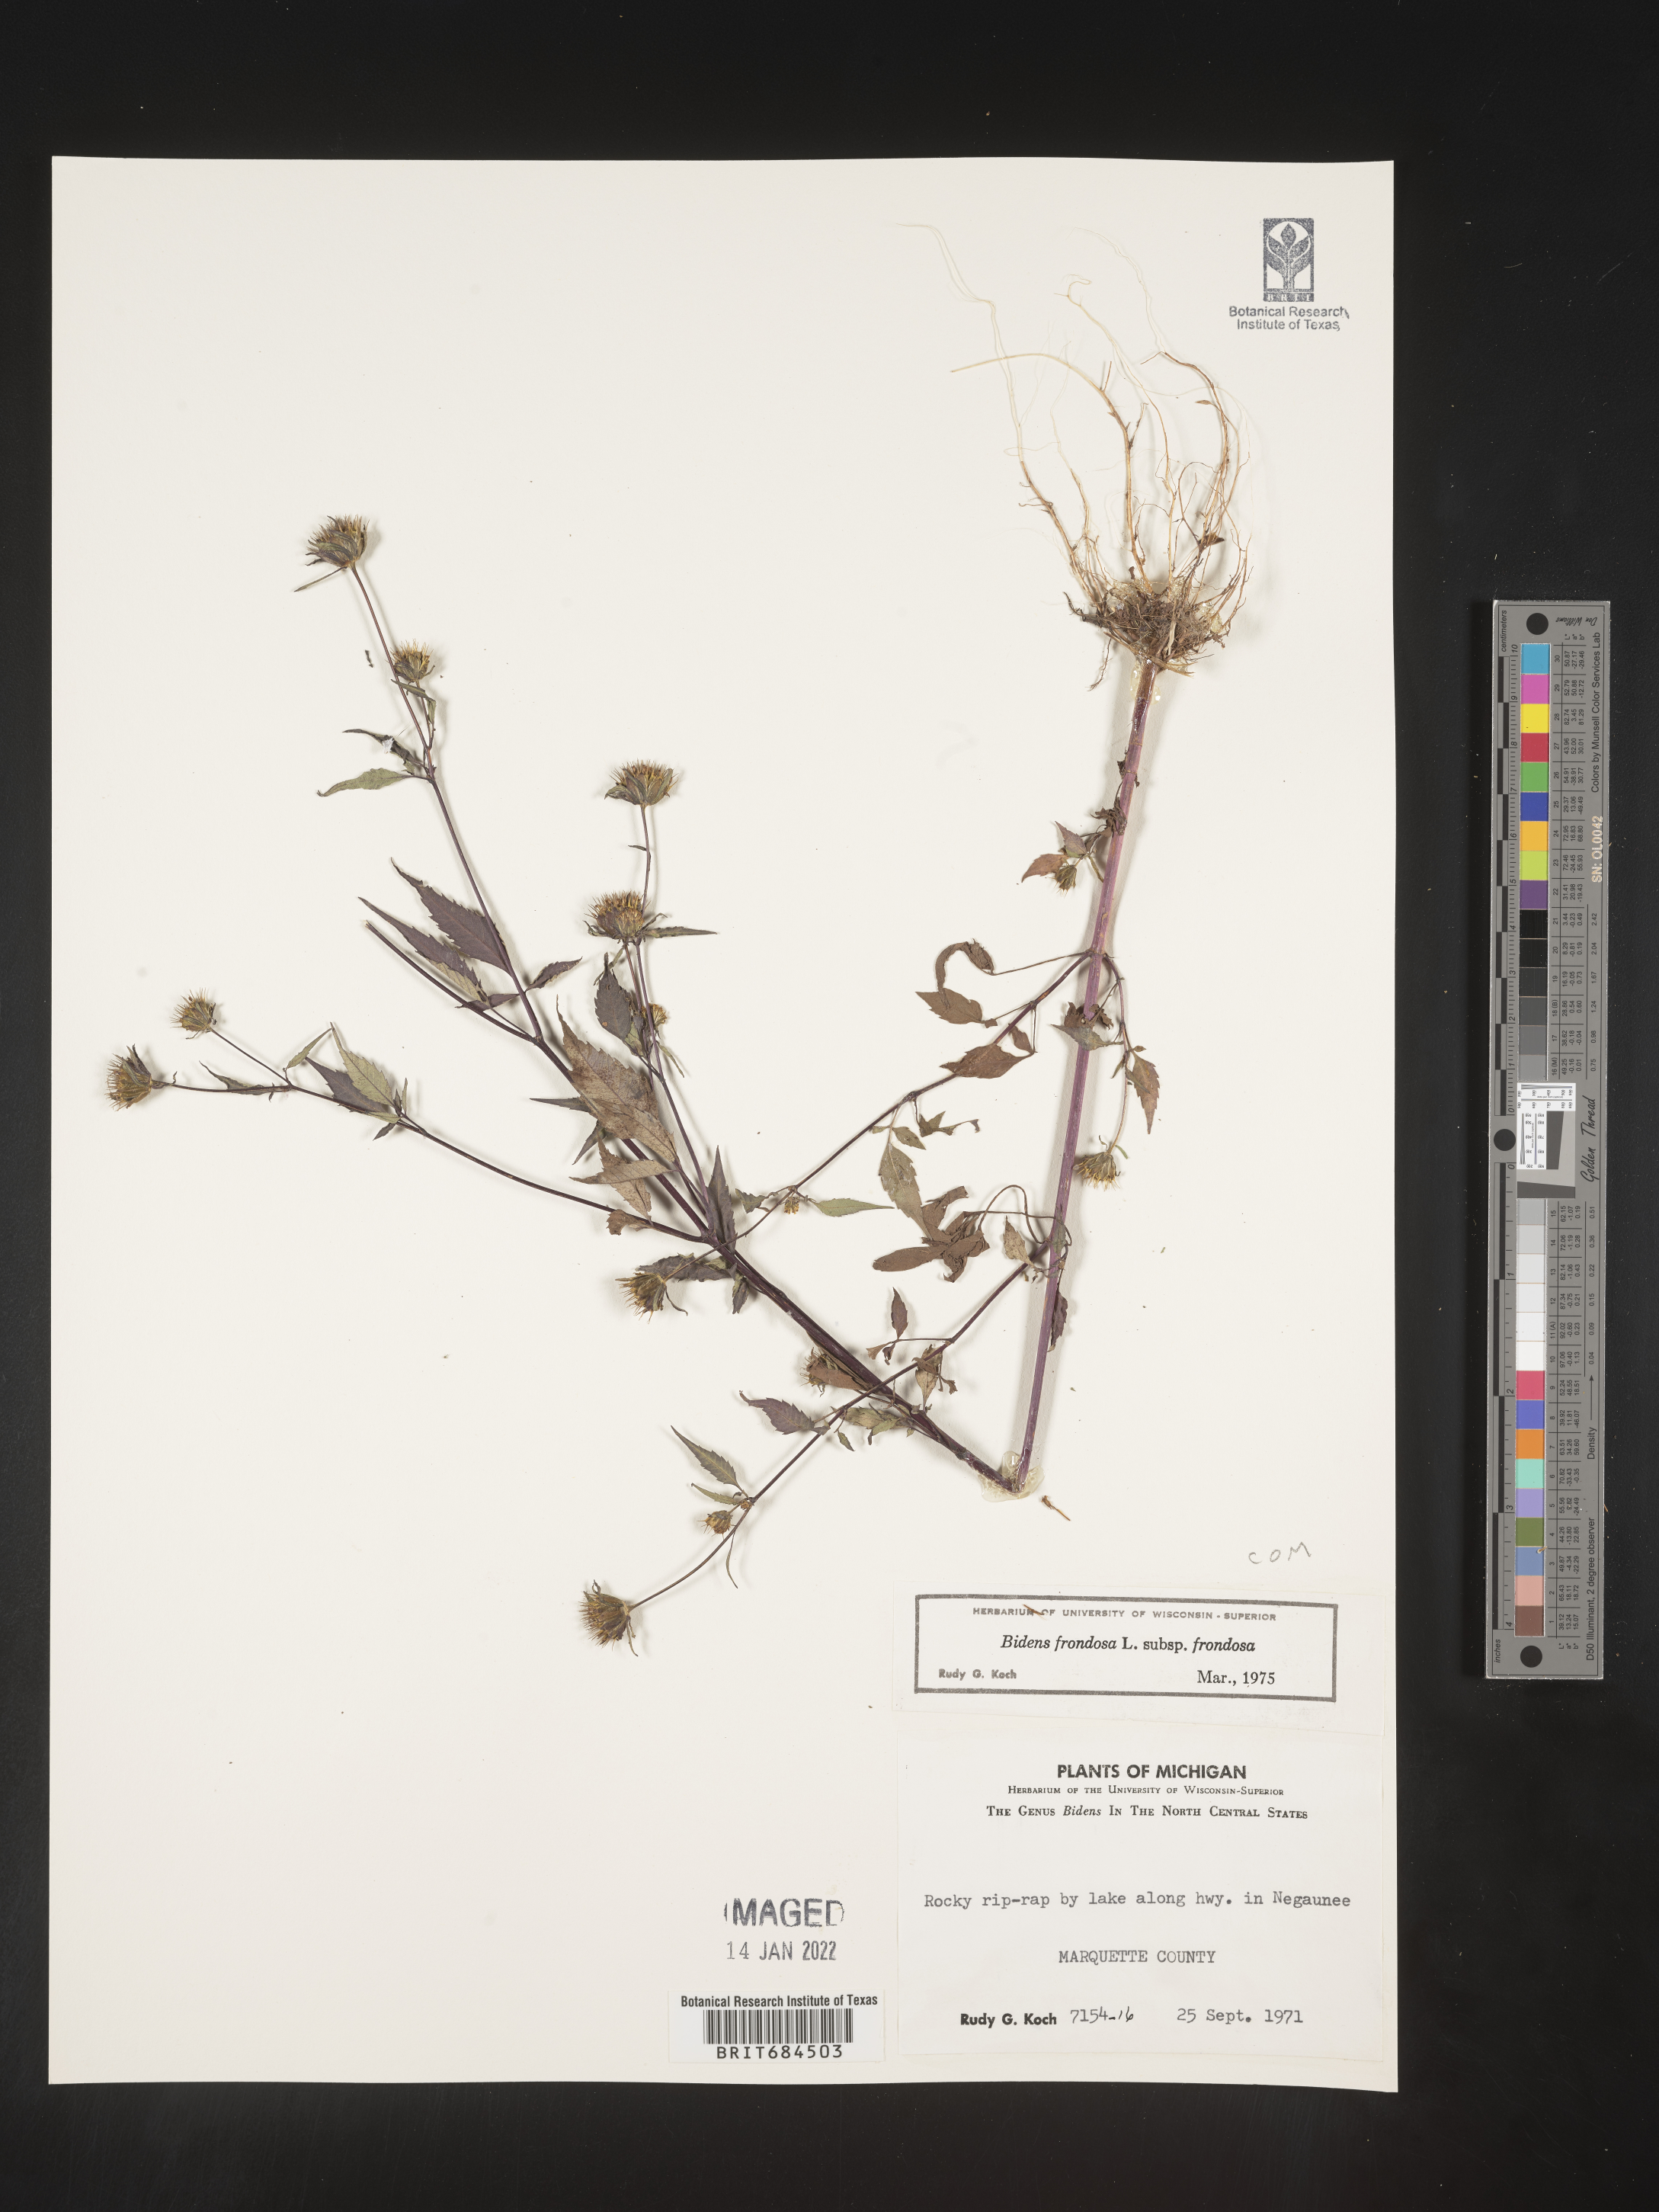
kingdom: Plantae
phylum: Tracheophyta
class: Magnoliopsida
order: Asterales
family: Asteraceae
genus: Bidens
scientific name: Bidens frondosa
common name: Beggarticks
